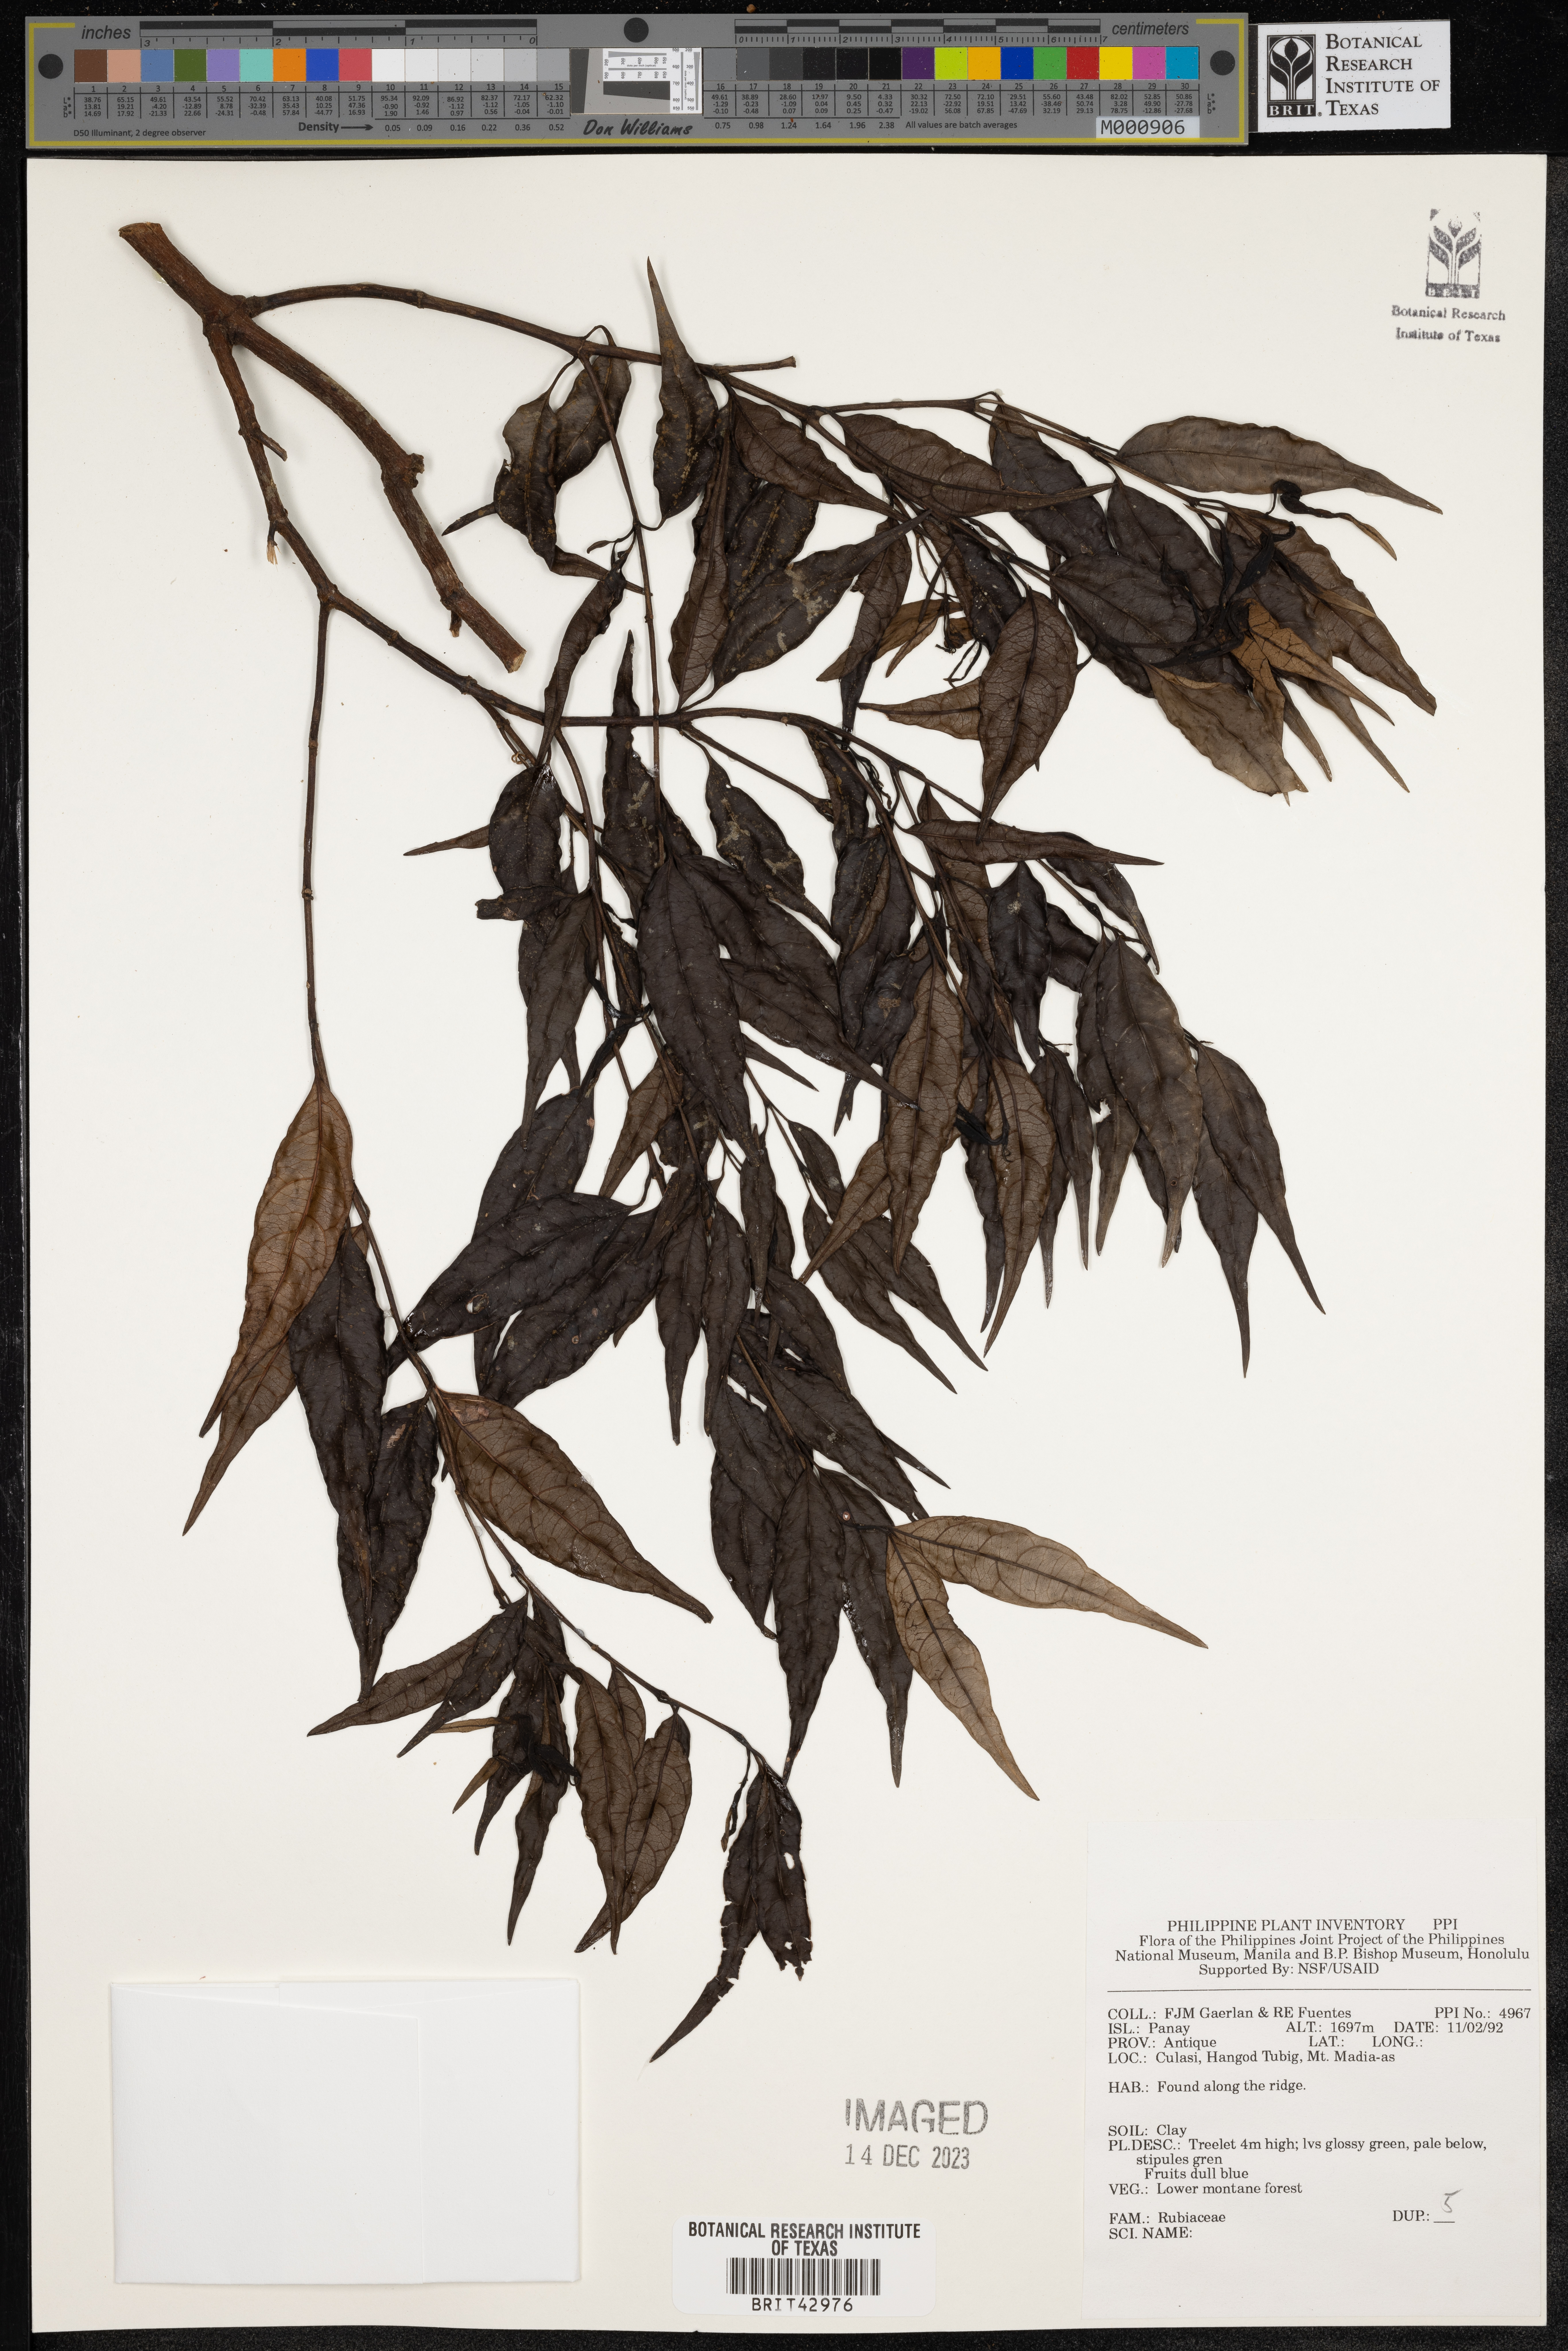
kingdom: Plantae
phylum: Tracheophyta
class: Magnoliopsida
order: Gentianales
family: Rubiaceae
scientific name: Rubiaceae
